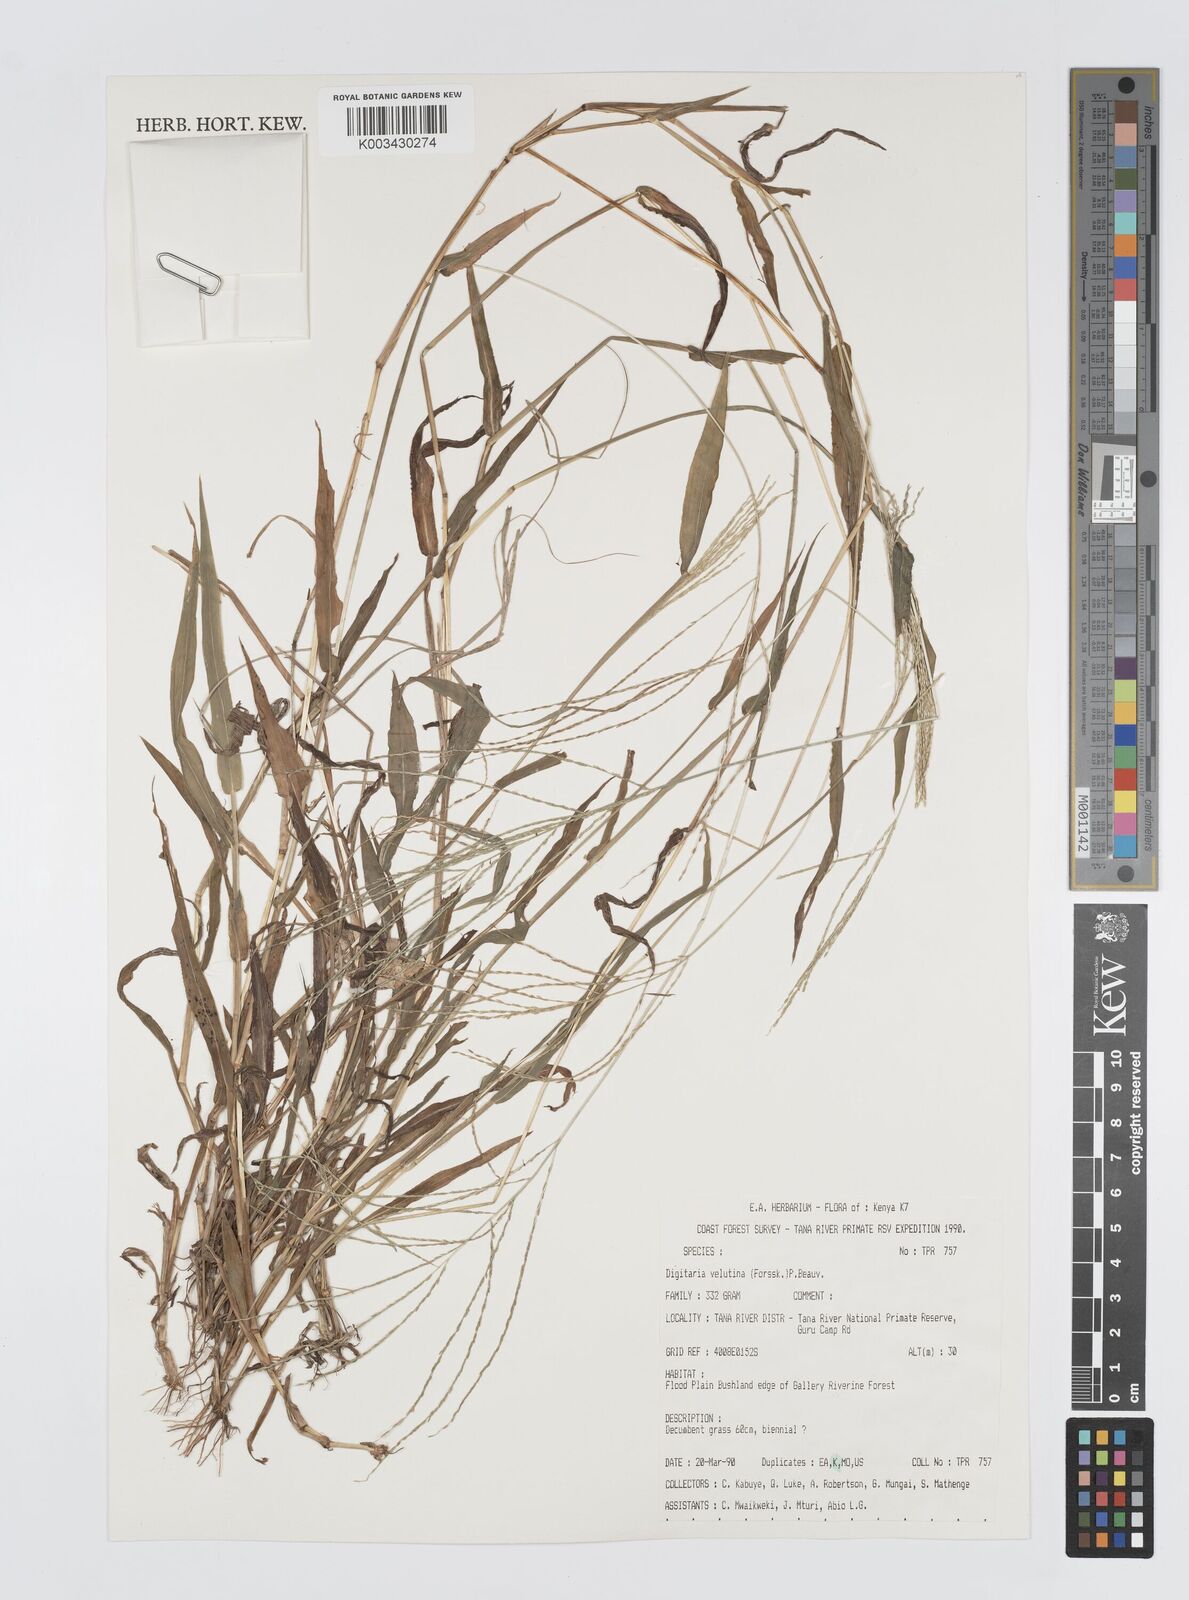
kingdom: Plantae
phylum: Tracheophyta
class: Liliopsida
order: Poales
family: Poaceae
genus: Digitaria
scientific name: Digitaria velutina
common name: Long-plume finger grass
